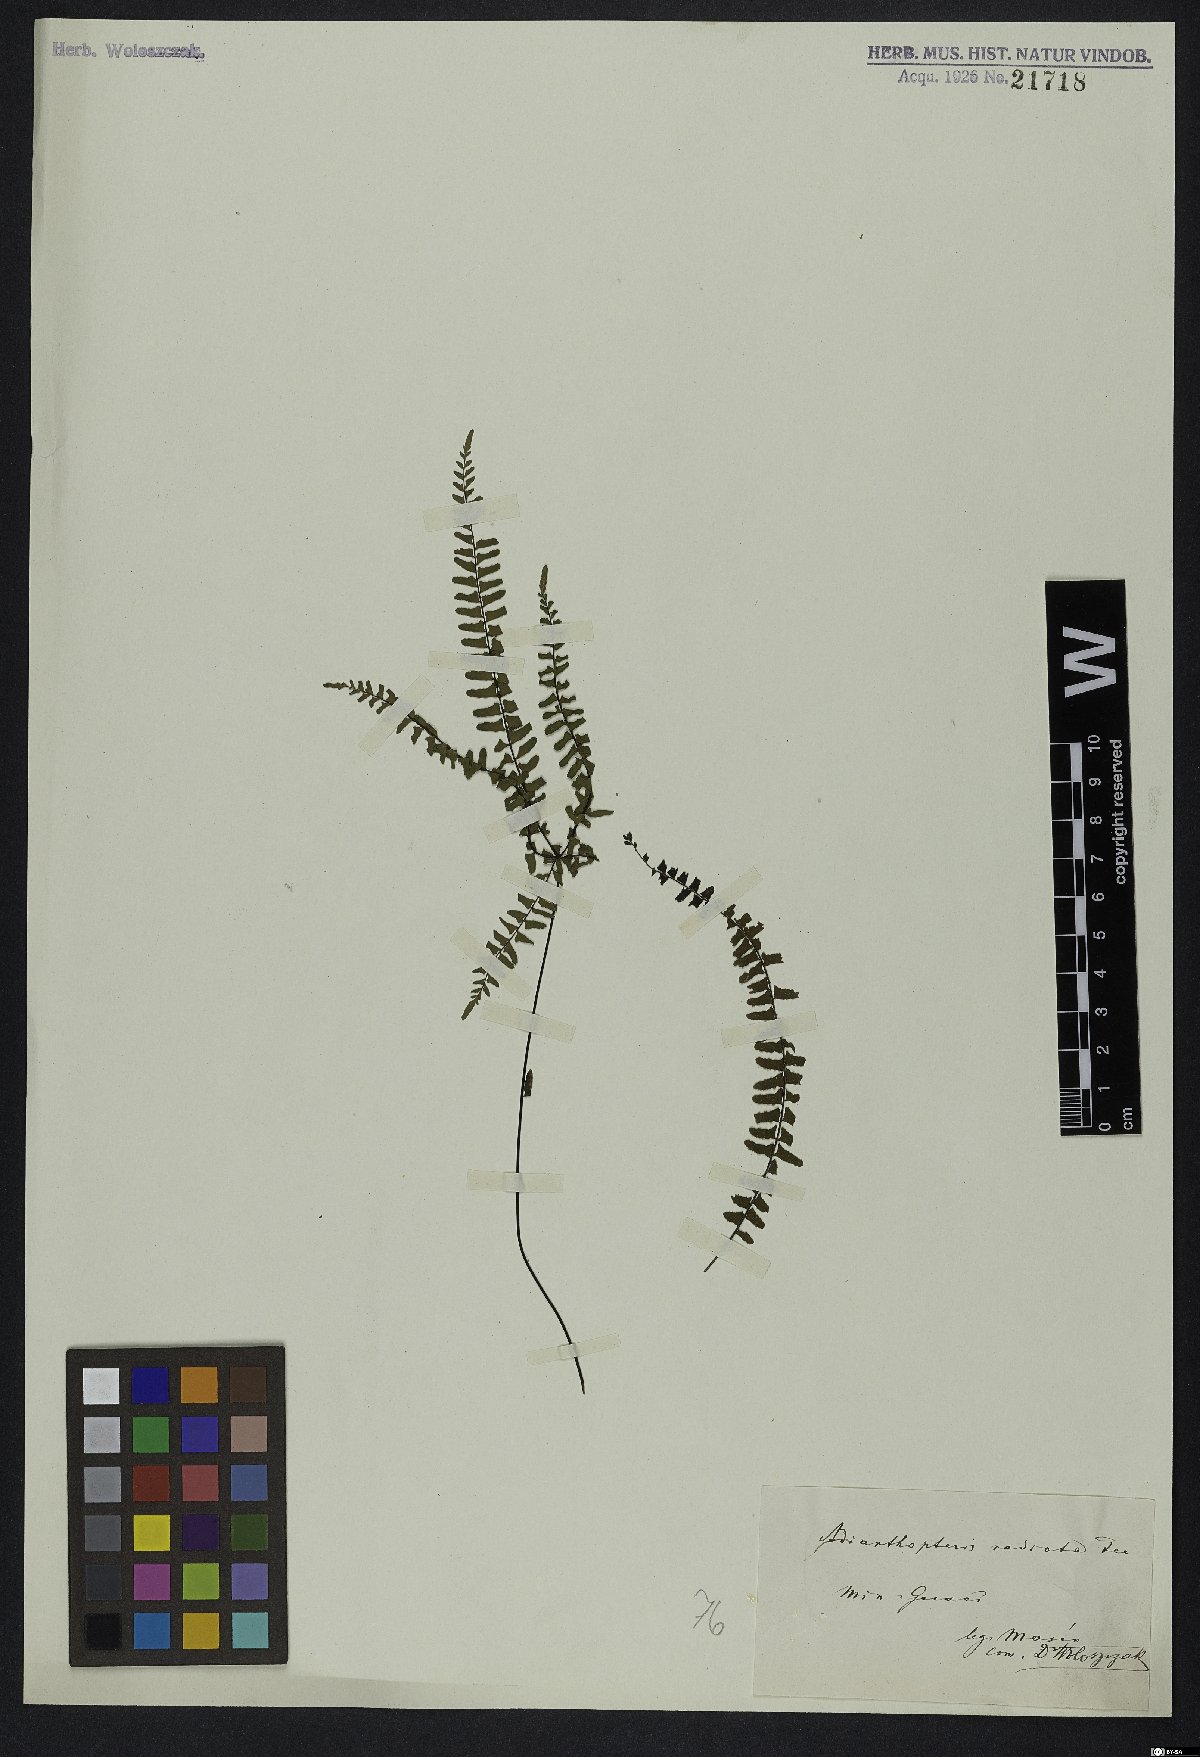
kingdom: Plantae
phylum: Tracheophyta
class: Polypodiopsida
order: Polypodiales
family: Pteridaceae
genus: Adiantopsis
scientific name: Adiantopsis radiata
